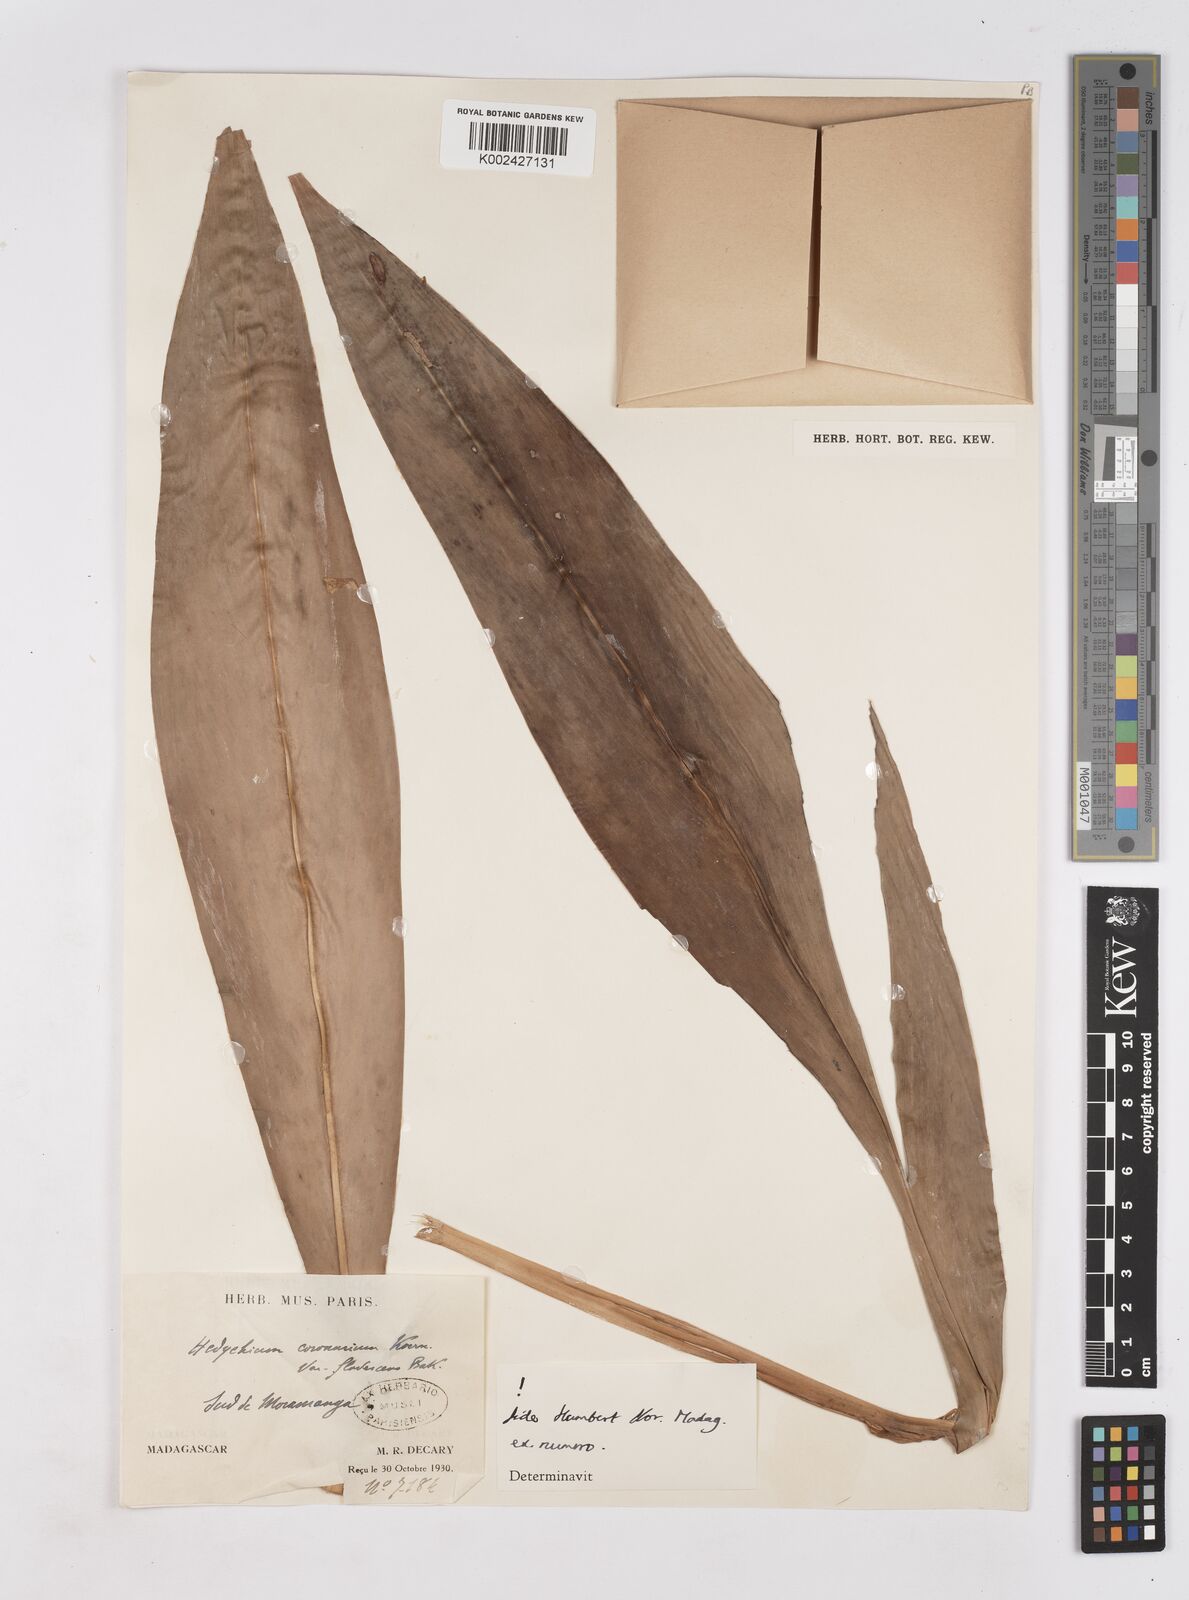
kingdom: Plantae
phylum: Tracheophyta
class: Liliopsida
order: Zingiberales
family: Zingiberaceae
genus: Hedychium
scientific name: Hedychium coronarium
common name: White garland-lily
